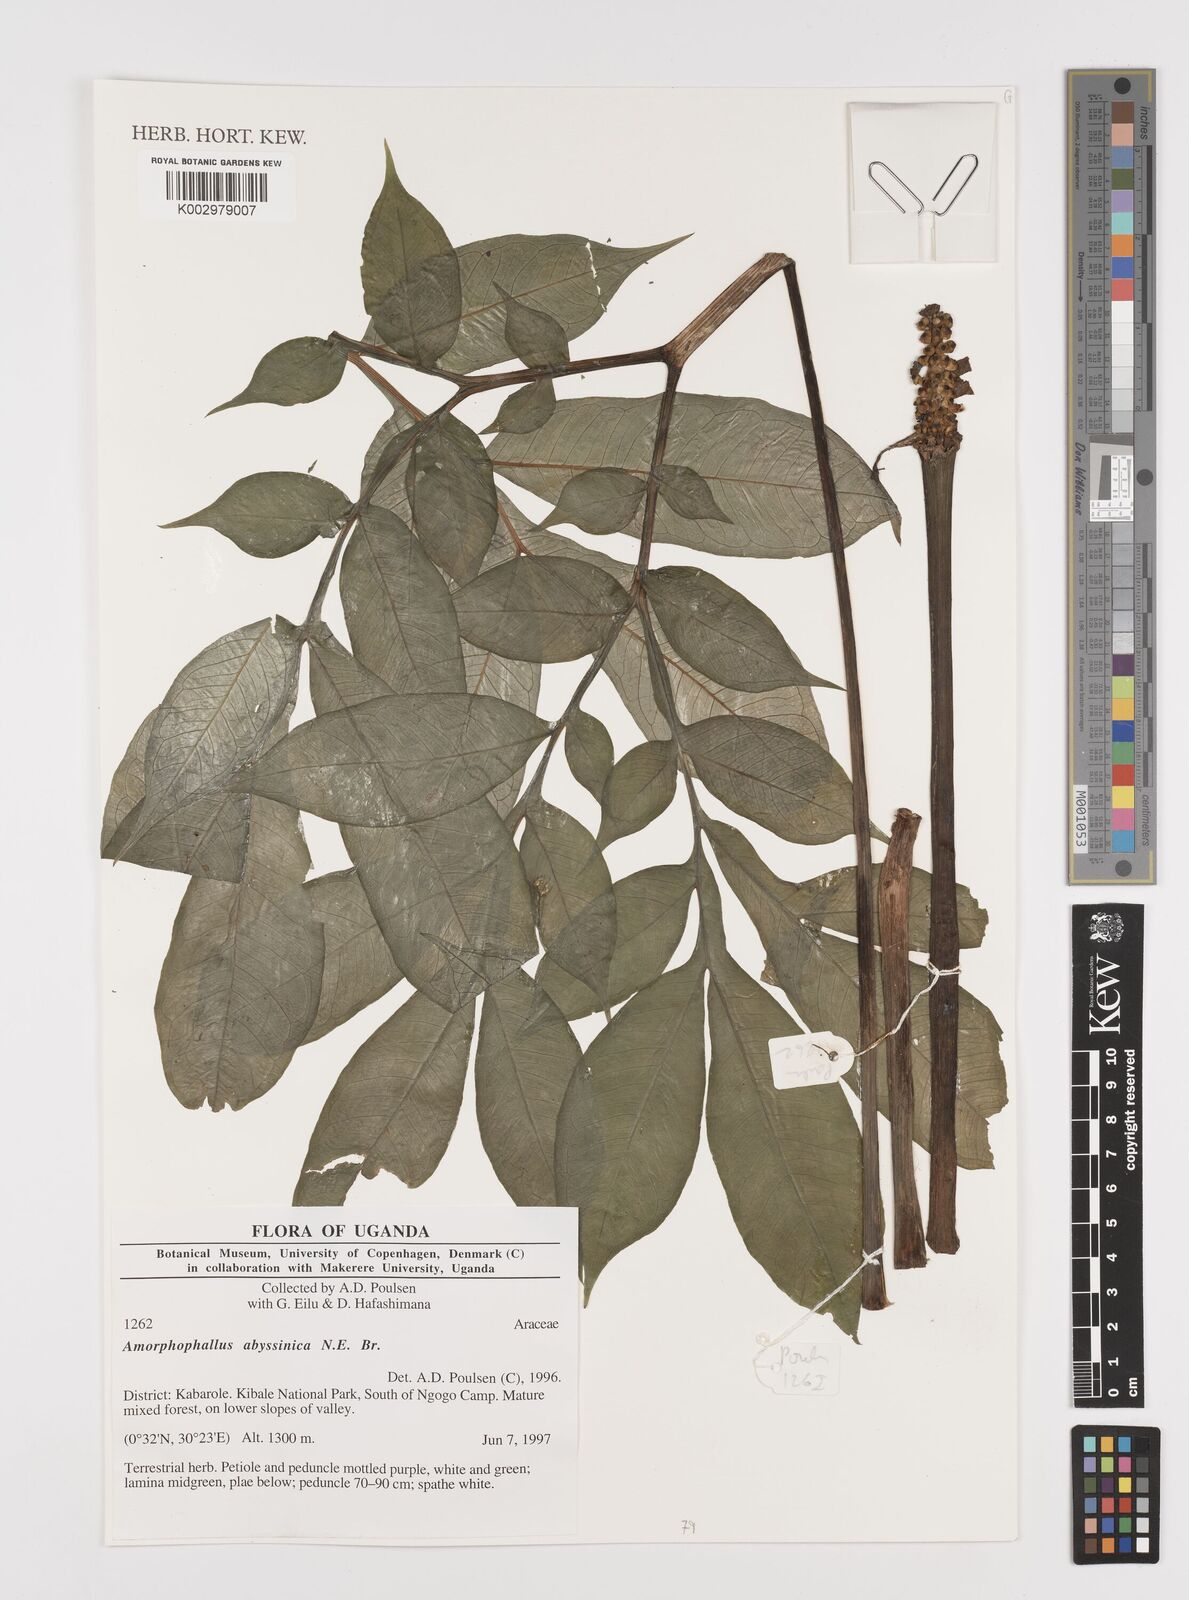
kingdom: Plantae
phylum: Tracheophyta
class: Liliopsida
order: Alismatales
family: Araceae
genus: Amorphophallus
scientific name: Amorphophallus abyssinicus
